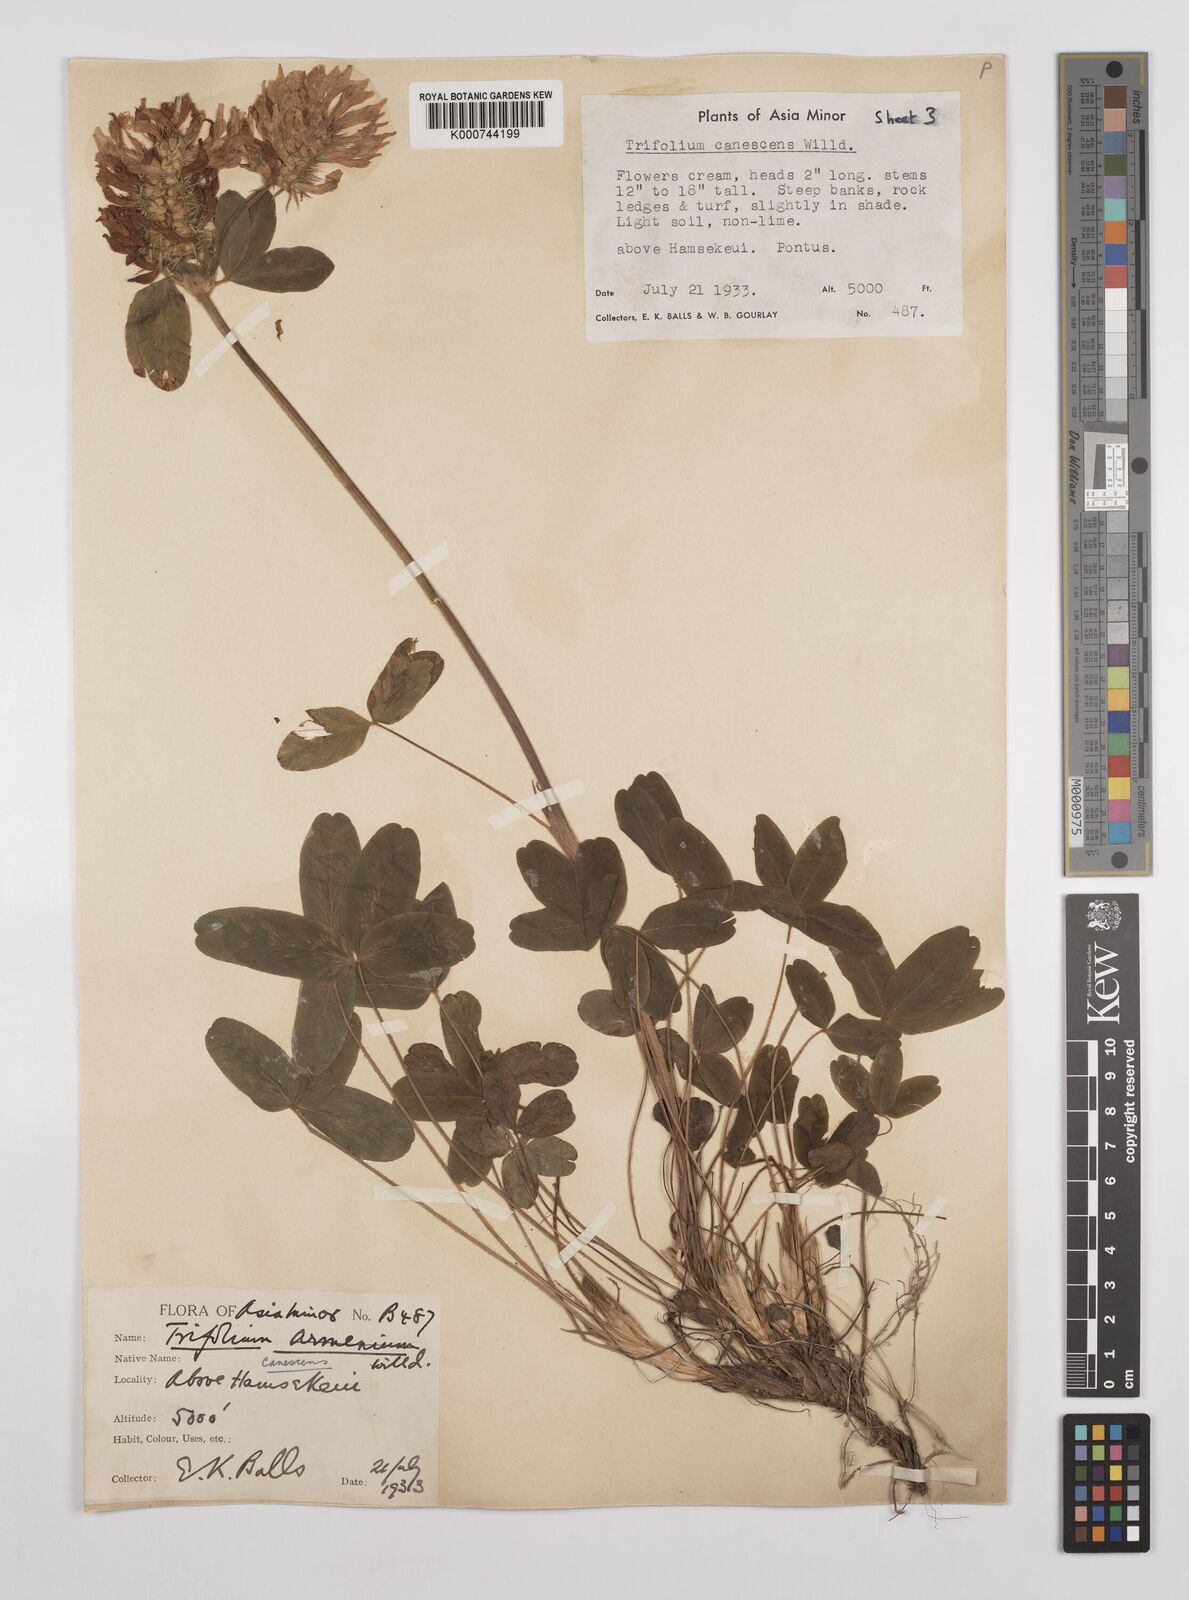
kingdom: Plantae
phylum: Tracheophyta
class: Magnoliopsida
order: Fabales
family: Fabaceae
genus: Trifolium
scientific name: Trifolium canescens
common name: Graying clover
